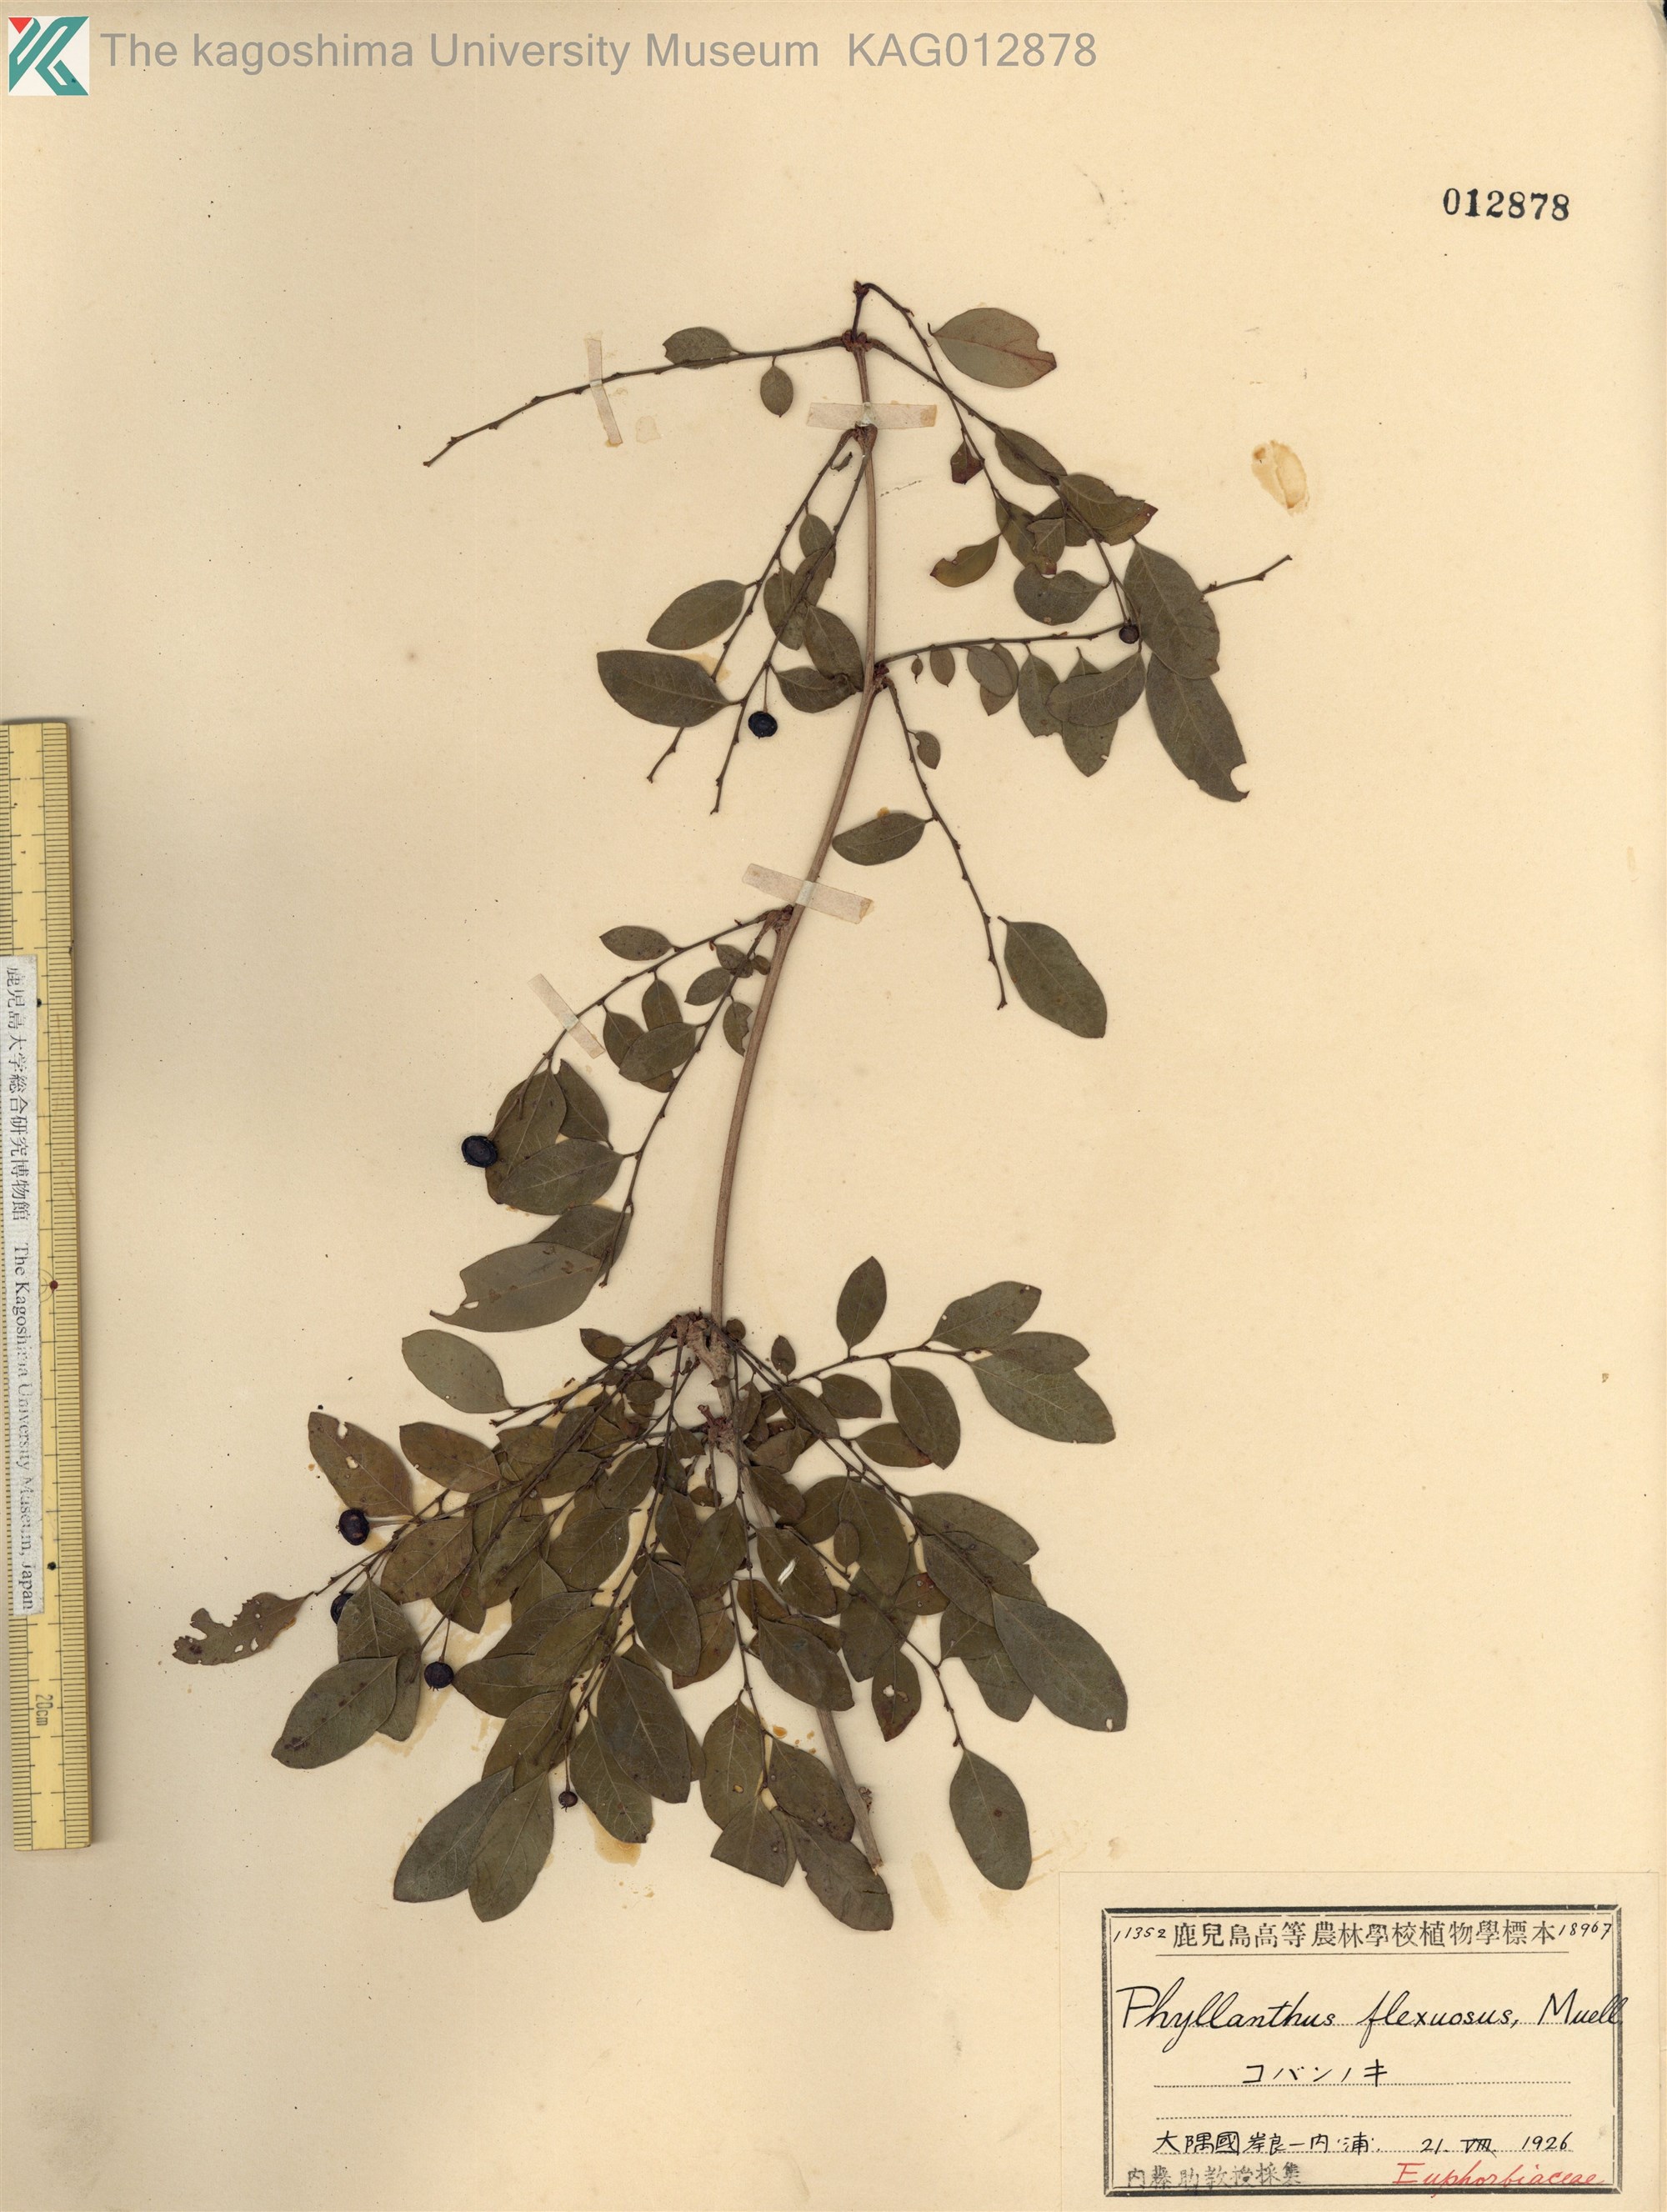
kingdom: Plantae
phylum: Tracheophyta
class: Magnoliopsida
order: Malpighiales
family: Phyllanthaceae
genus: Phyllanthus
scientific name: Phyllanthus flexuosus
